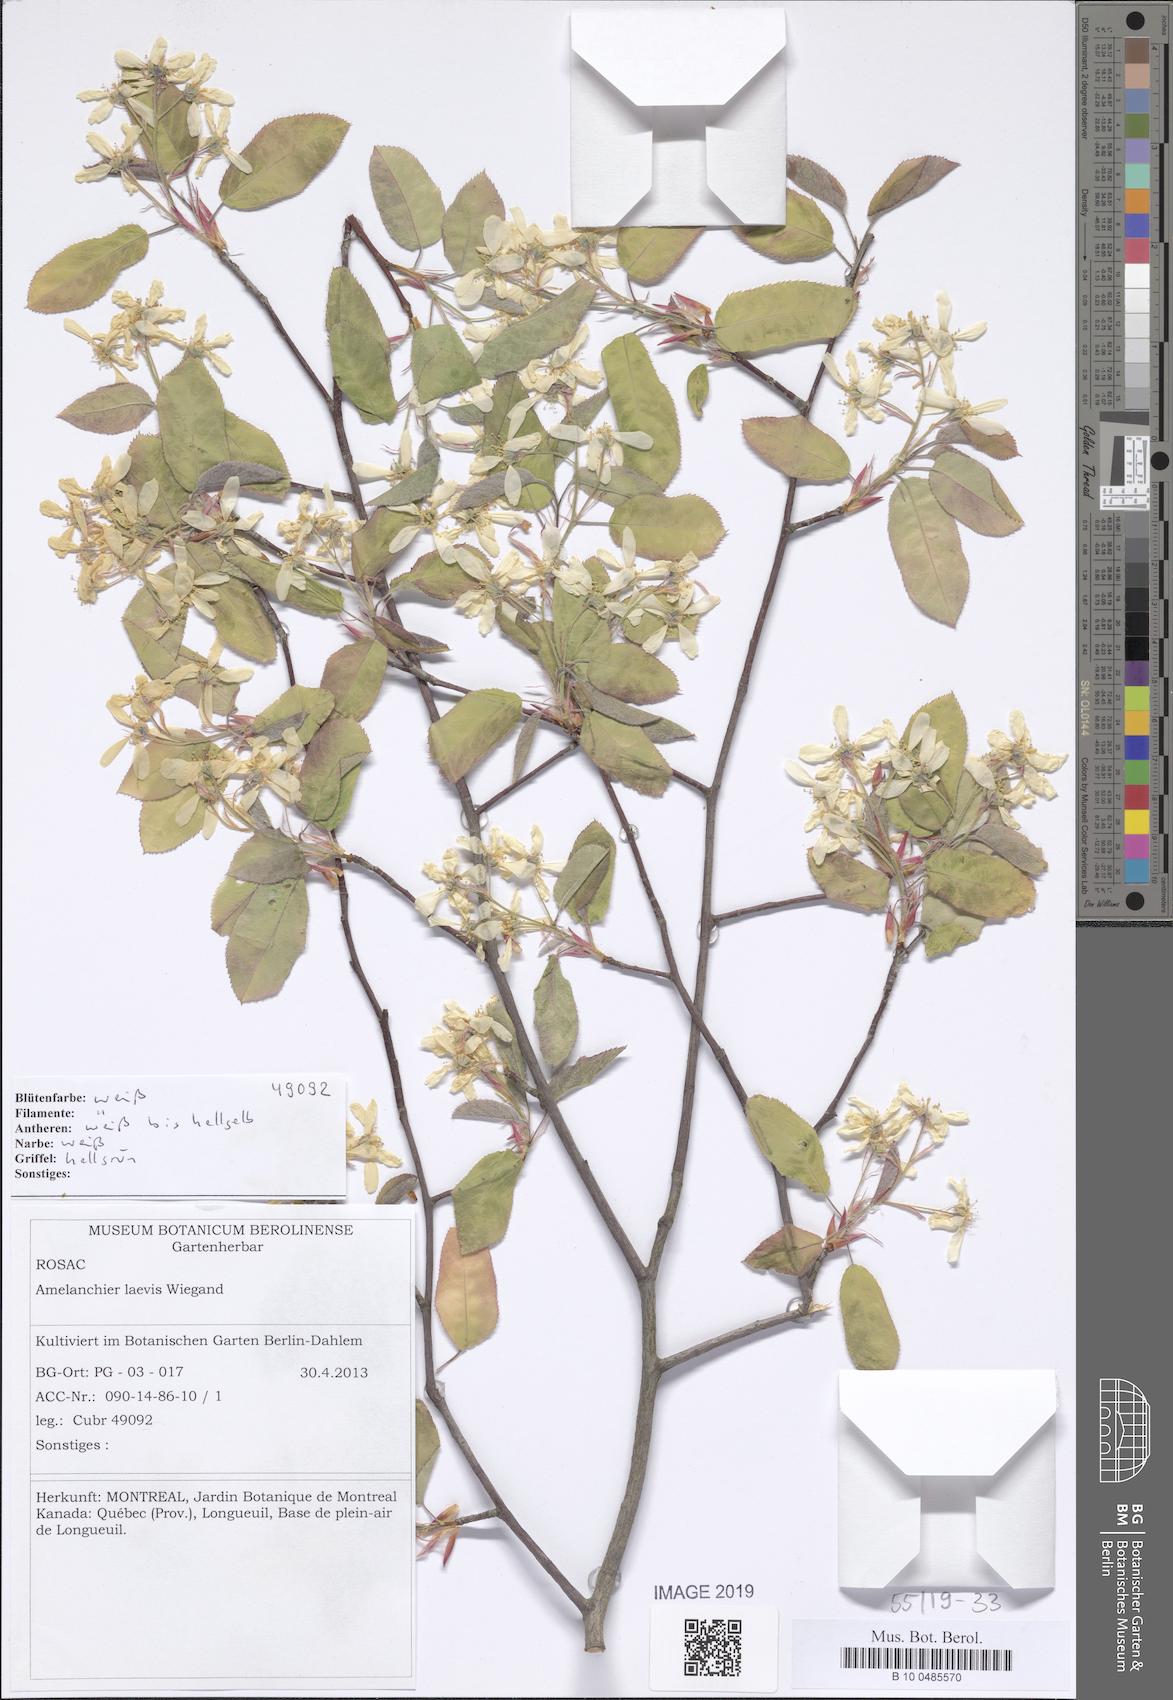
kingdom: Plantae
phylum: Tracheophyta
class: Magnoliopsida
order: Rosales
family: Rosaceae
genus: Amelanchier
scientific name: Amelanchier laevis
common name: Allegheny serviceberry
